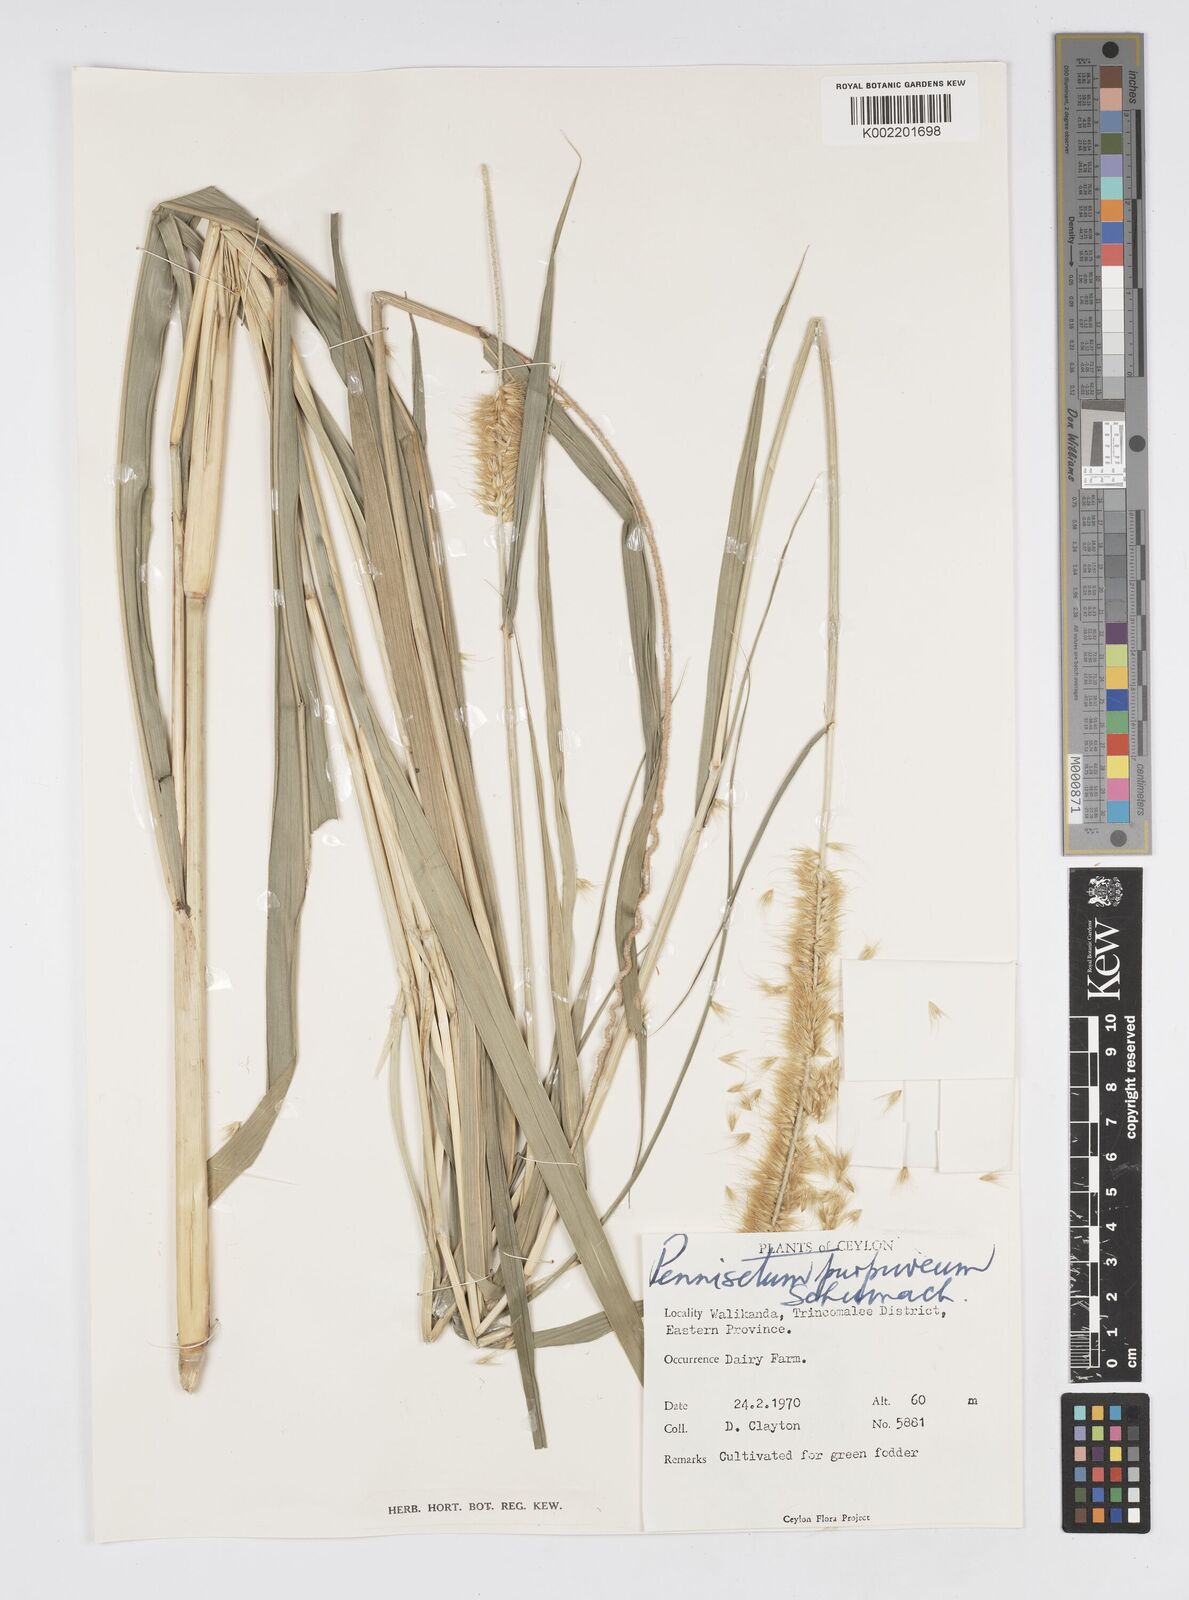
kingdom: Plantae
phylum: Tracheophyta
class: Liliopsida
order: Poales
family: Poaceae
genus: Cenchrus
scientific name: Cenchrus purpureus
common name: Elephant grass
